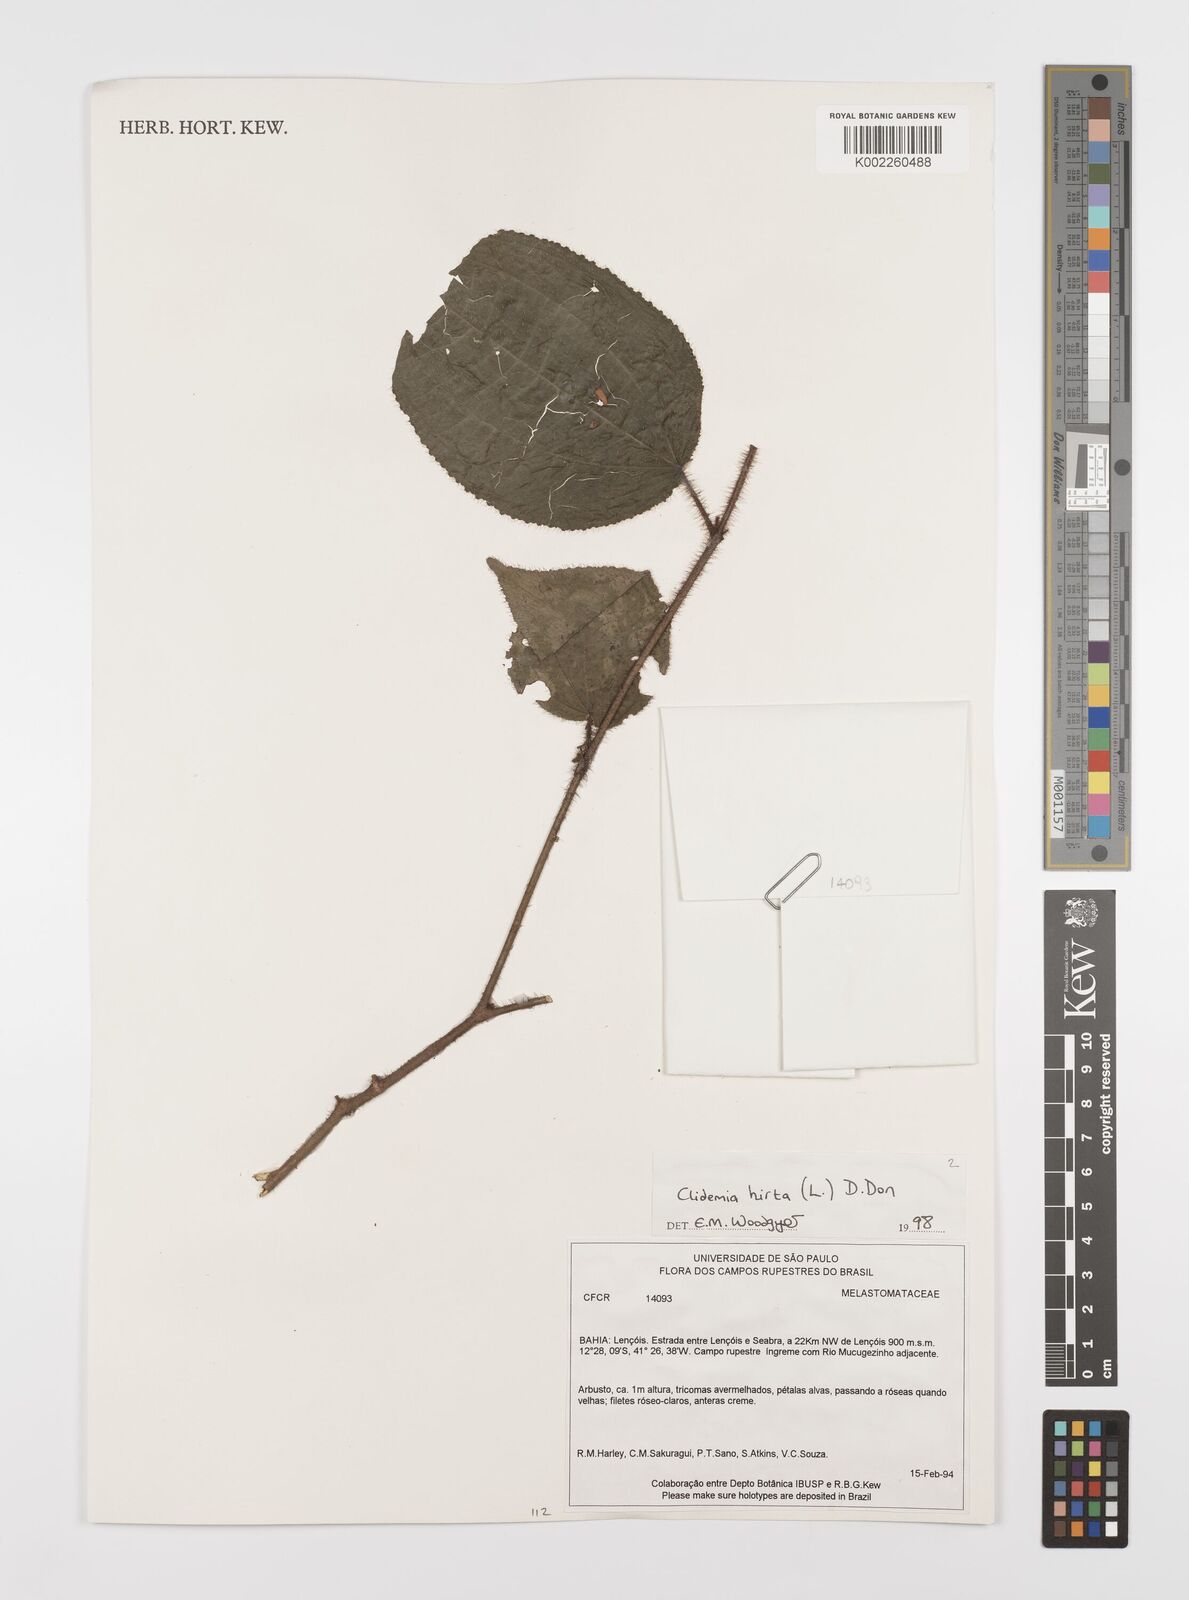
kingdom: Plantae
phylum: Tracheophyta
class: Magnoliopsida
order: Myrtales
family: Melastomataceae
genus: Miconia
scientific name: Miconia crenata
